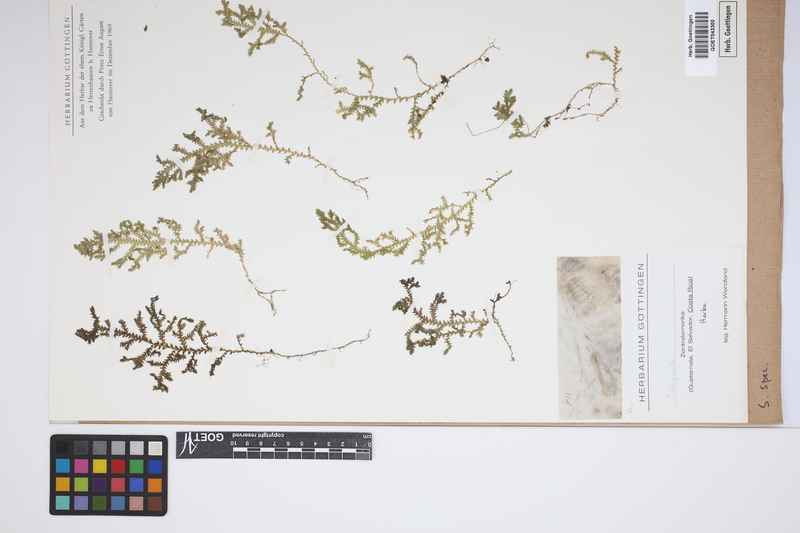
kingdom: Plantae
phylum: Tracheophyta
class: Lycopodiopsida
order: Selaginellales
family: Selaginellaceae
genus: Selaginella
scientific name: Selaginella
